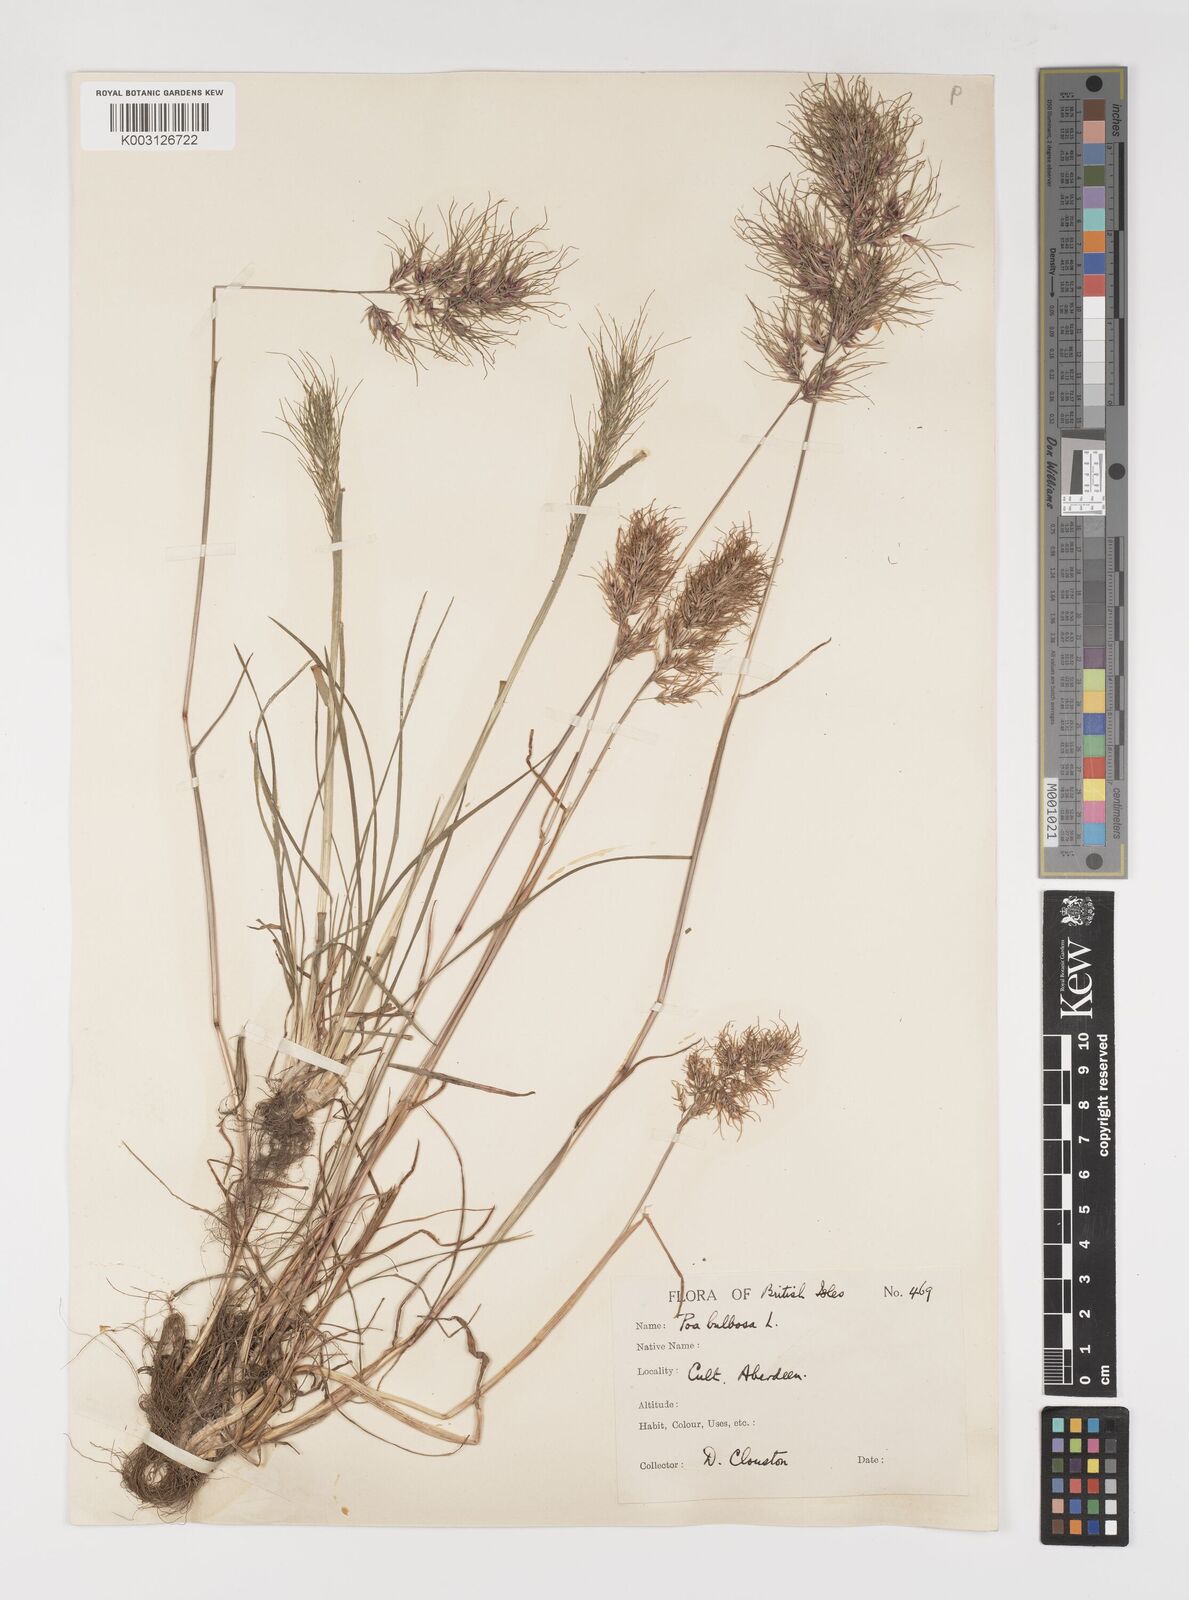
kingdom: Plantae
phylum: Tracheophyta
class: Liliopsida
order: Poales
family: Poaceae
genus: Poa
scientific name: Poa bulbosa
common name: Bulbous bluegrass
